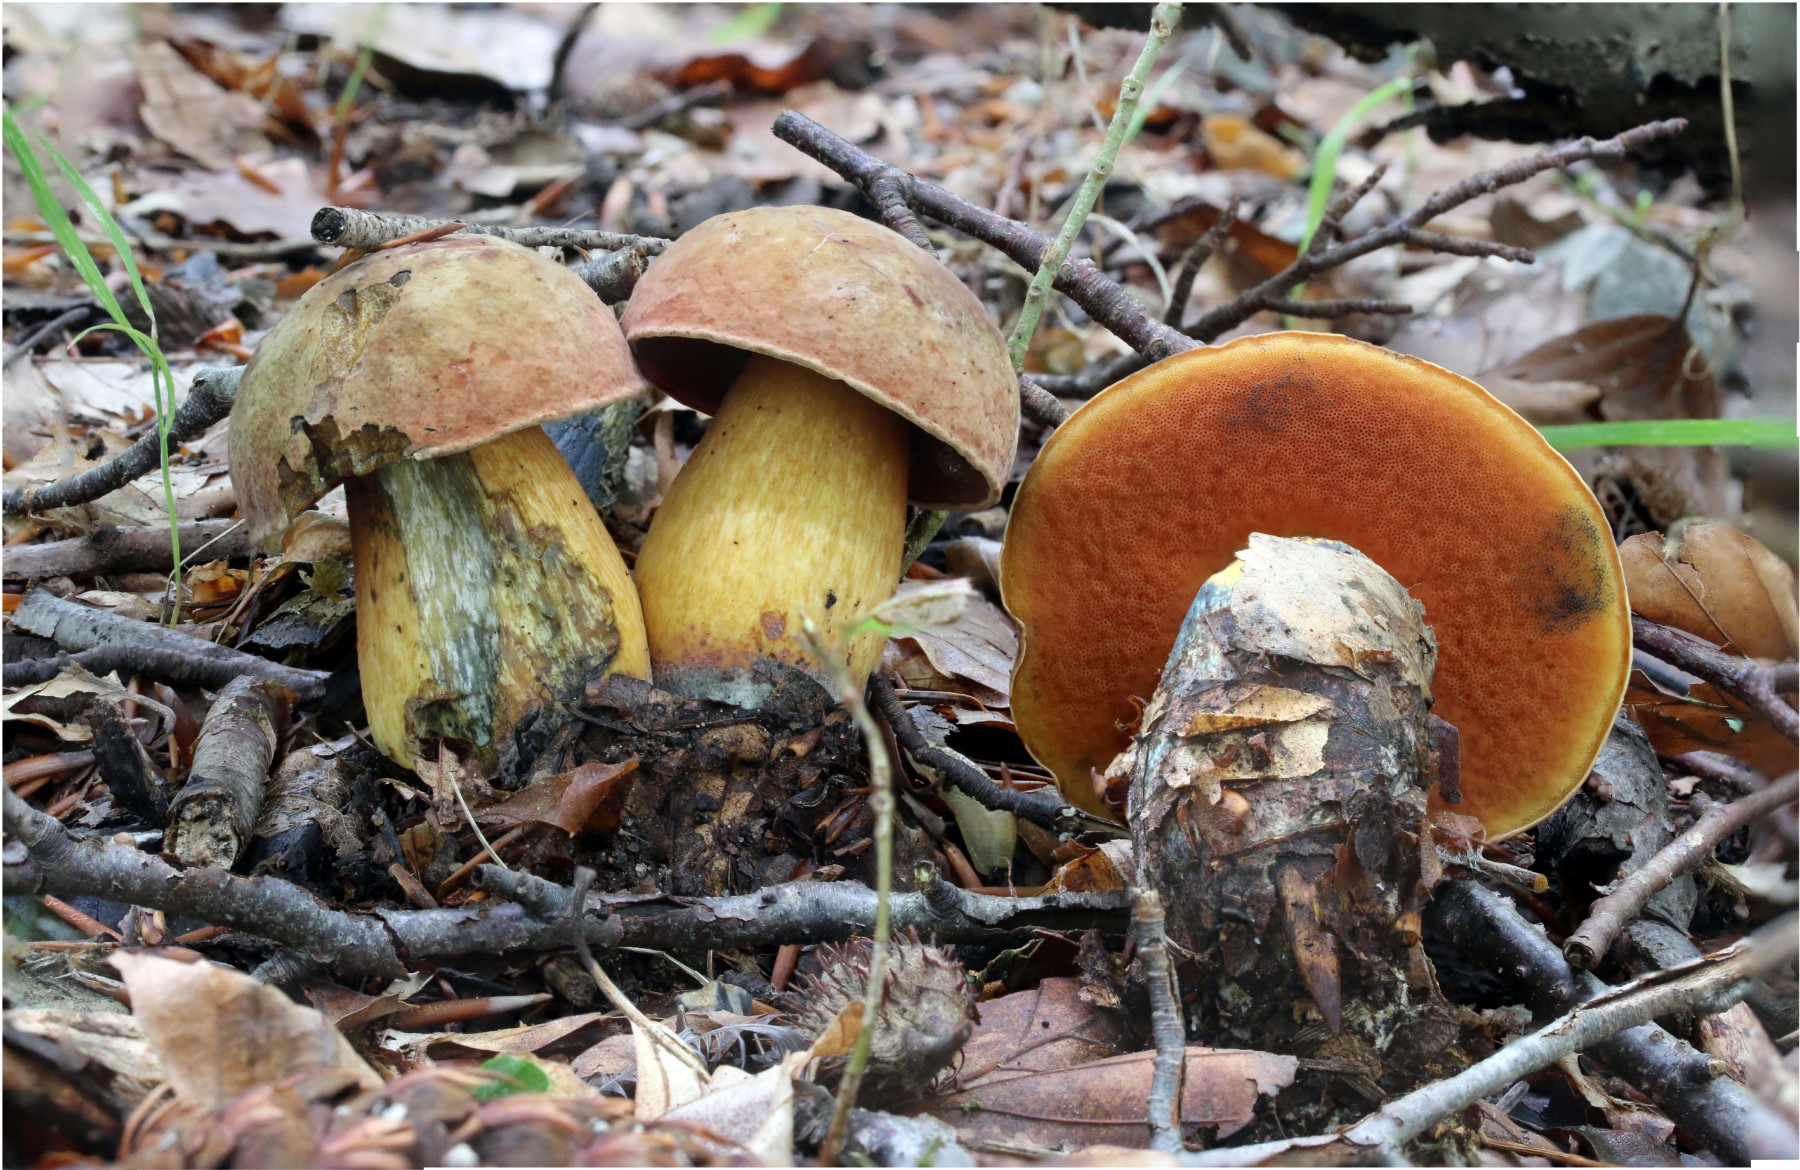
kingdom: Fungi
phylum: Basidiomycota
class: Agaricomycetes
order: Boletales
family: Boletaceae
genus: Suillellus
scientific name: Suillellus luridus
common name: netstokket indigorørhat
